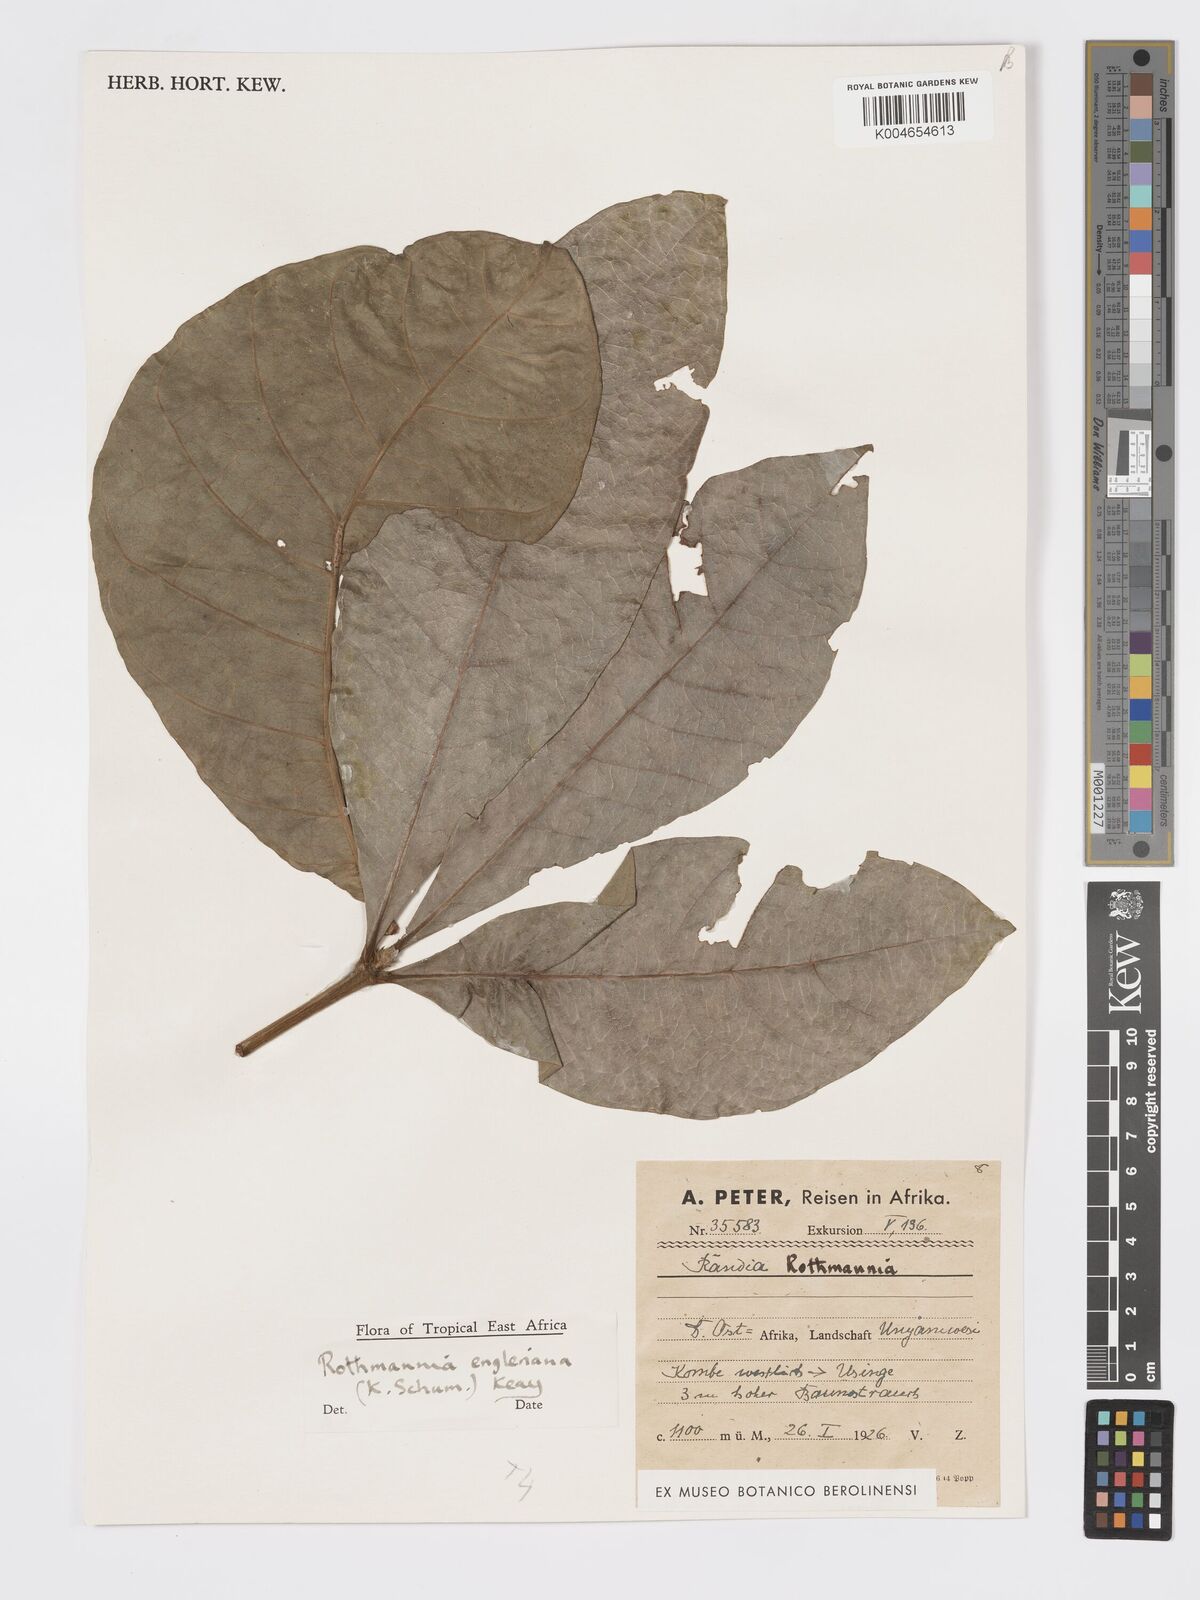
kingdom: Plantae
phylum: Tracheophyta
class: Magnoliopsida
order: Gentianales
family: Rubiaceae
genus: Rothmannia
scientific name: Rothmannia engleriana
